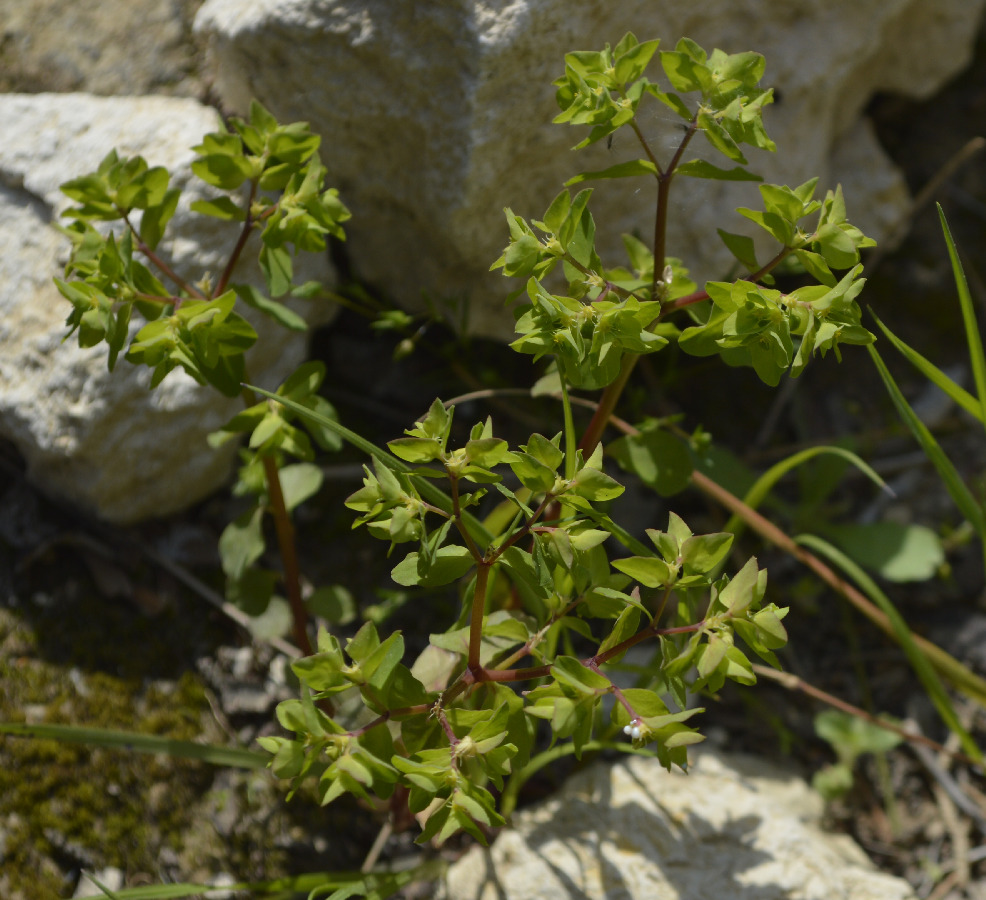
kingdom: Plantae
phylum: Tracheophyta
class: Magnoliopsida
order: Malpighiales
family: Euphorbiaceae
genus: Euphorbia
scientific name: Euphorbia peplus
